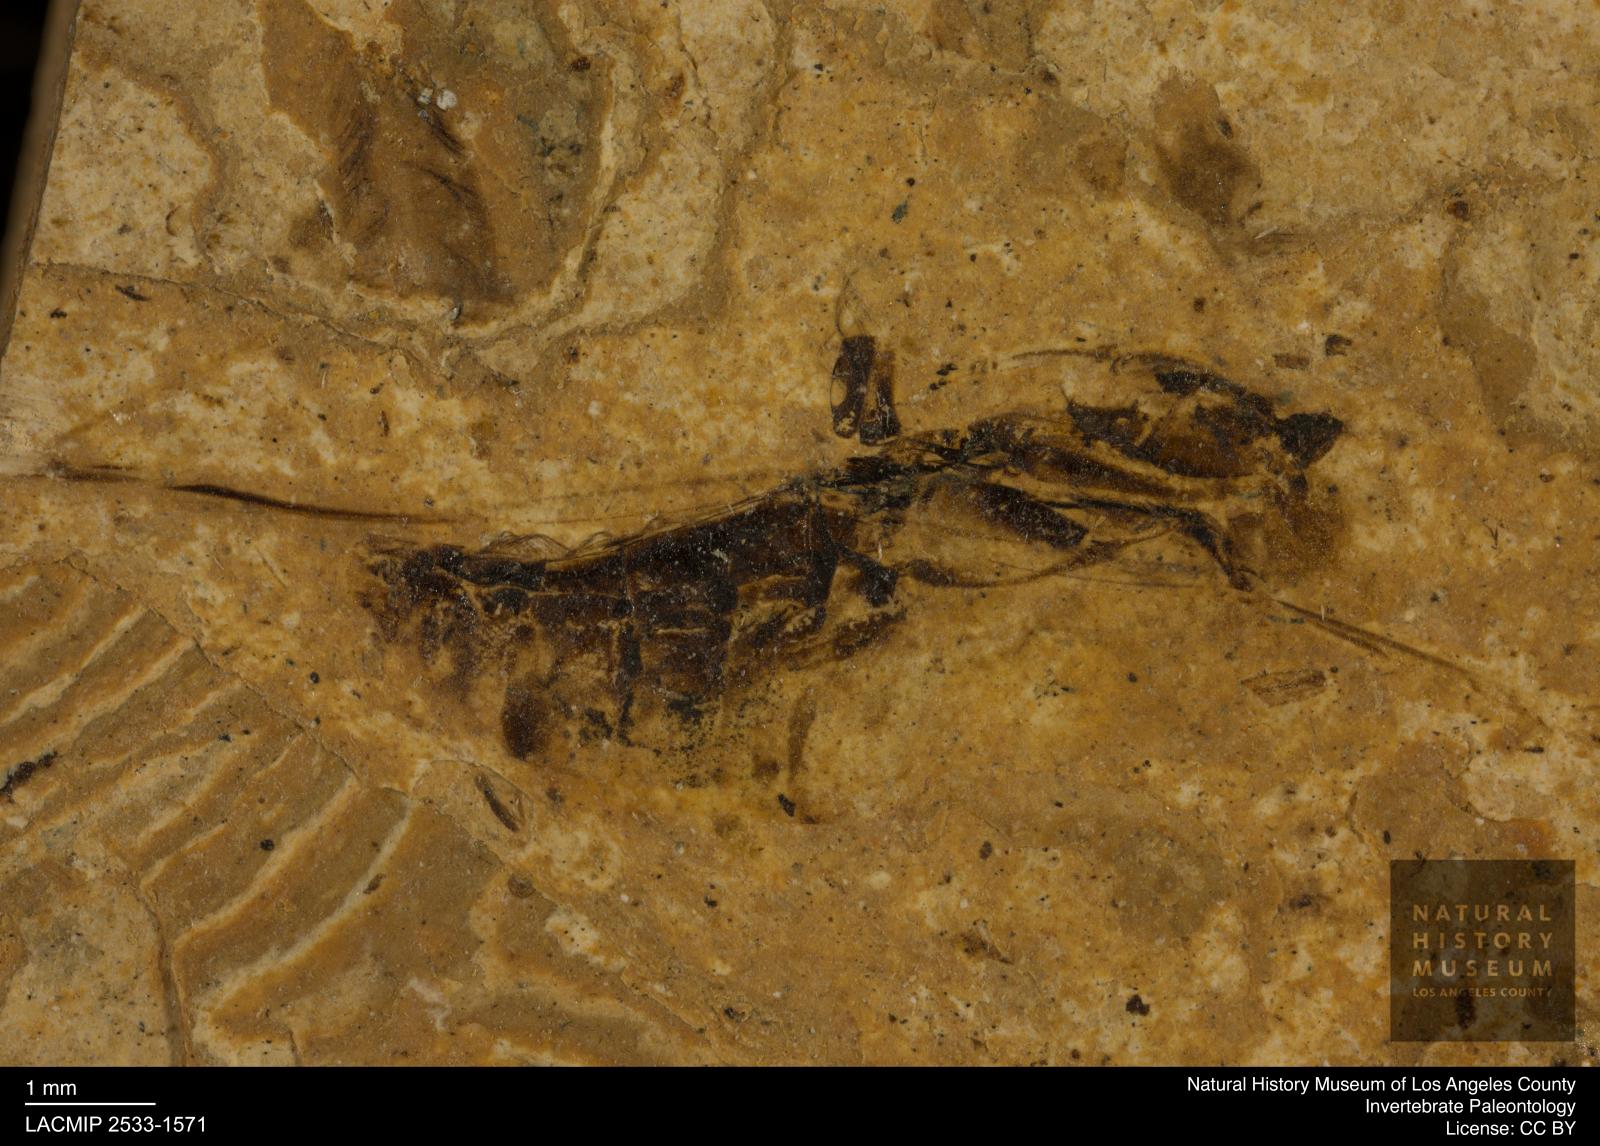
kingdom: Animalia
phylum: Arthropoda
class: Insecta
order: Hemiptera
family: Notonectidae
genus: Notonecta
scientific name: Notonecta
